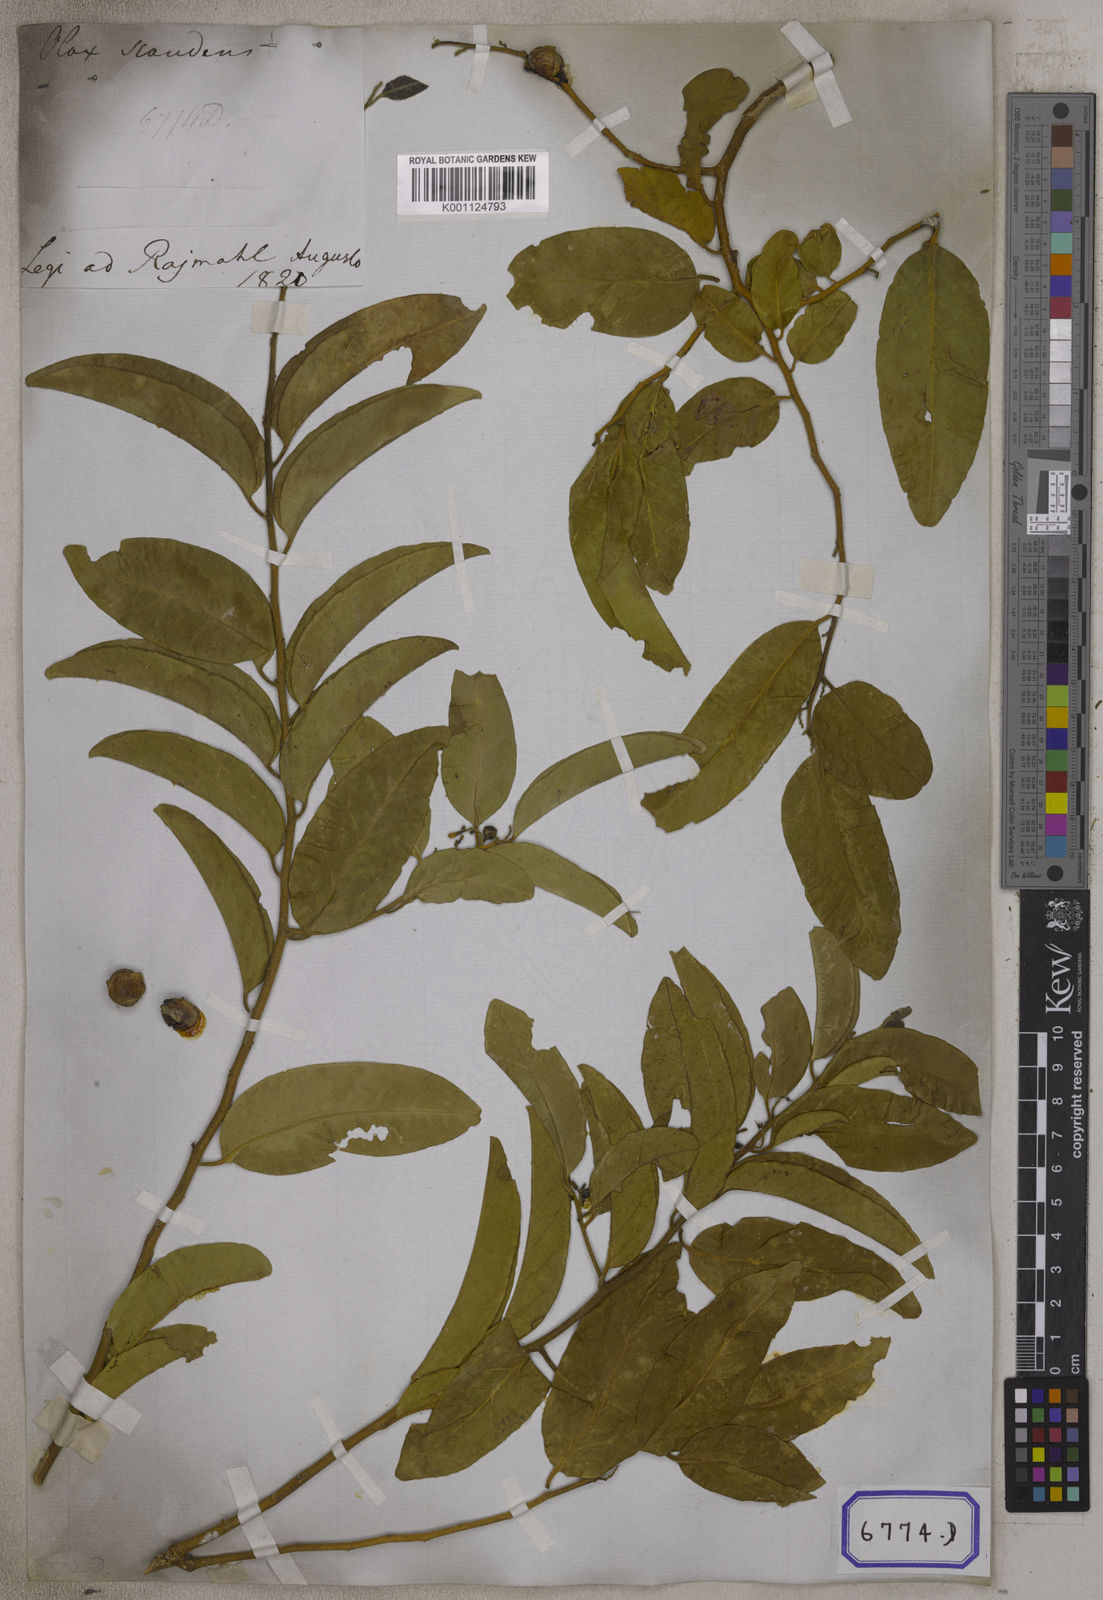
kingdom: Plantae
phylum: Tracheophyta
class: Magnoliopsida
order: Santalales
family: Olacaceae
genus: Olax
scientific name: Olax psittacorum
